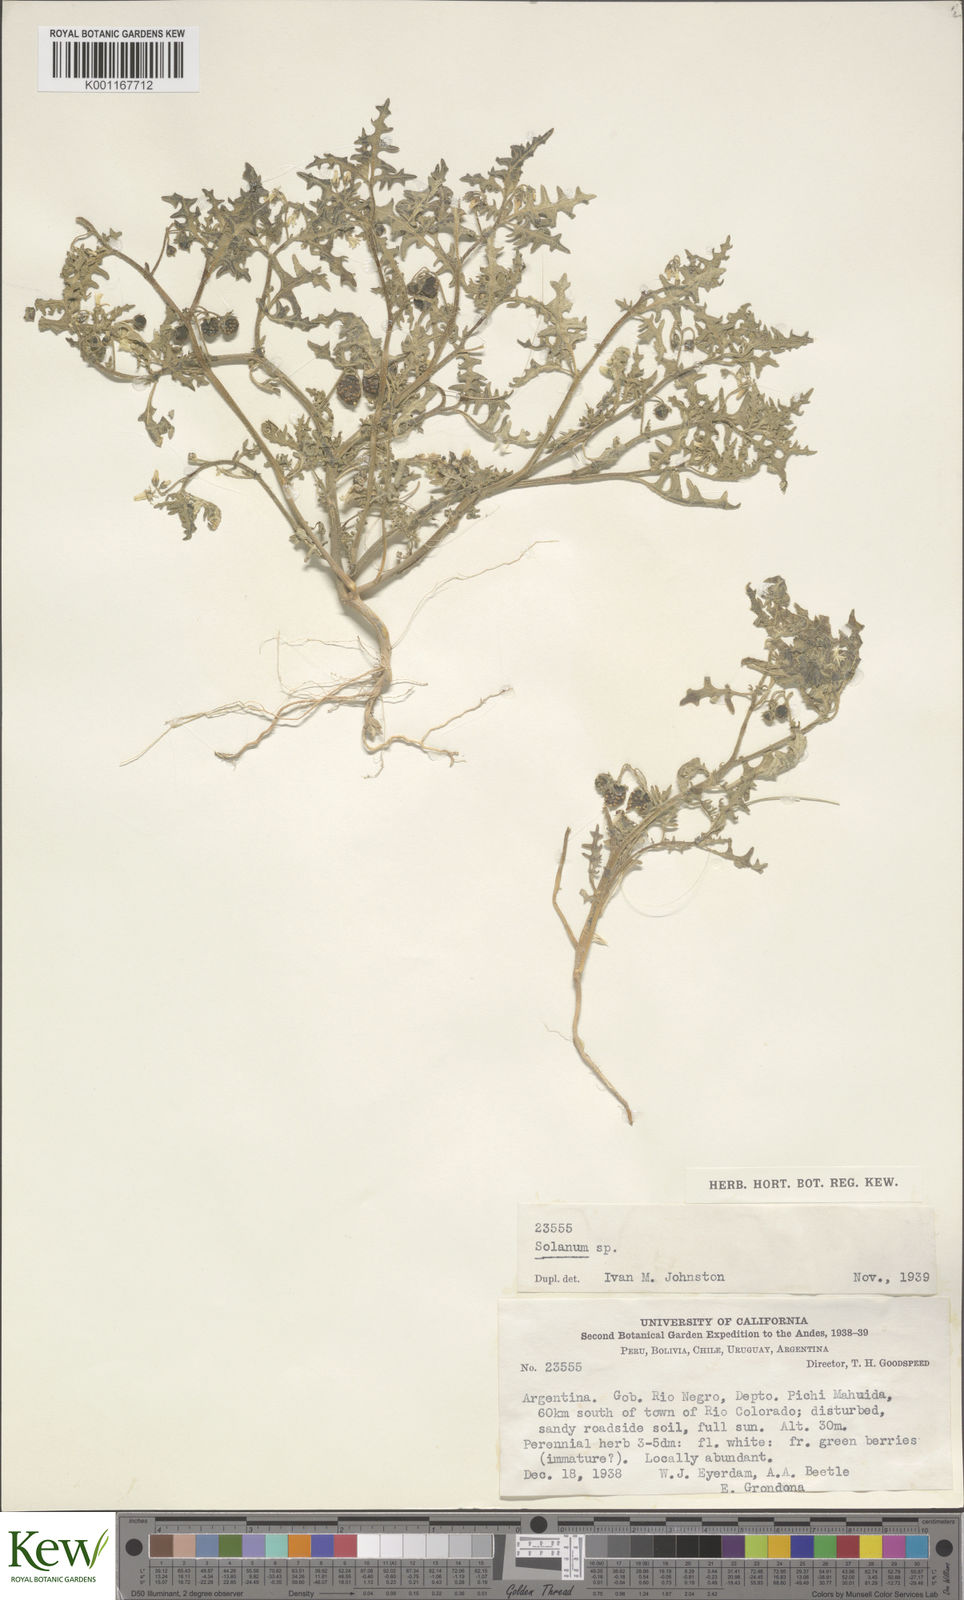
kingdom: Plantae
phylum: Tracheophyta
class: Magnoliopsida
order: Solanales
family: Solanaceae
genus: Solanum
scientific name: Solanum triflorum
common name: Small nightshade
